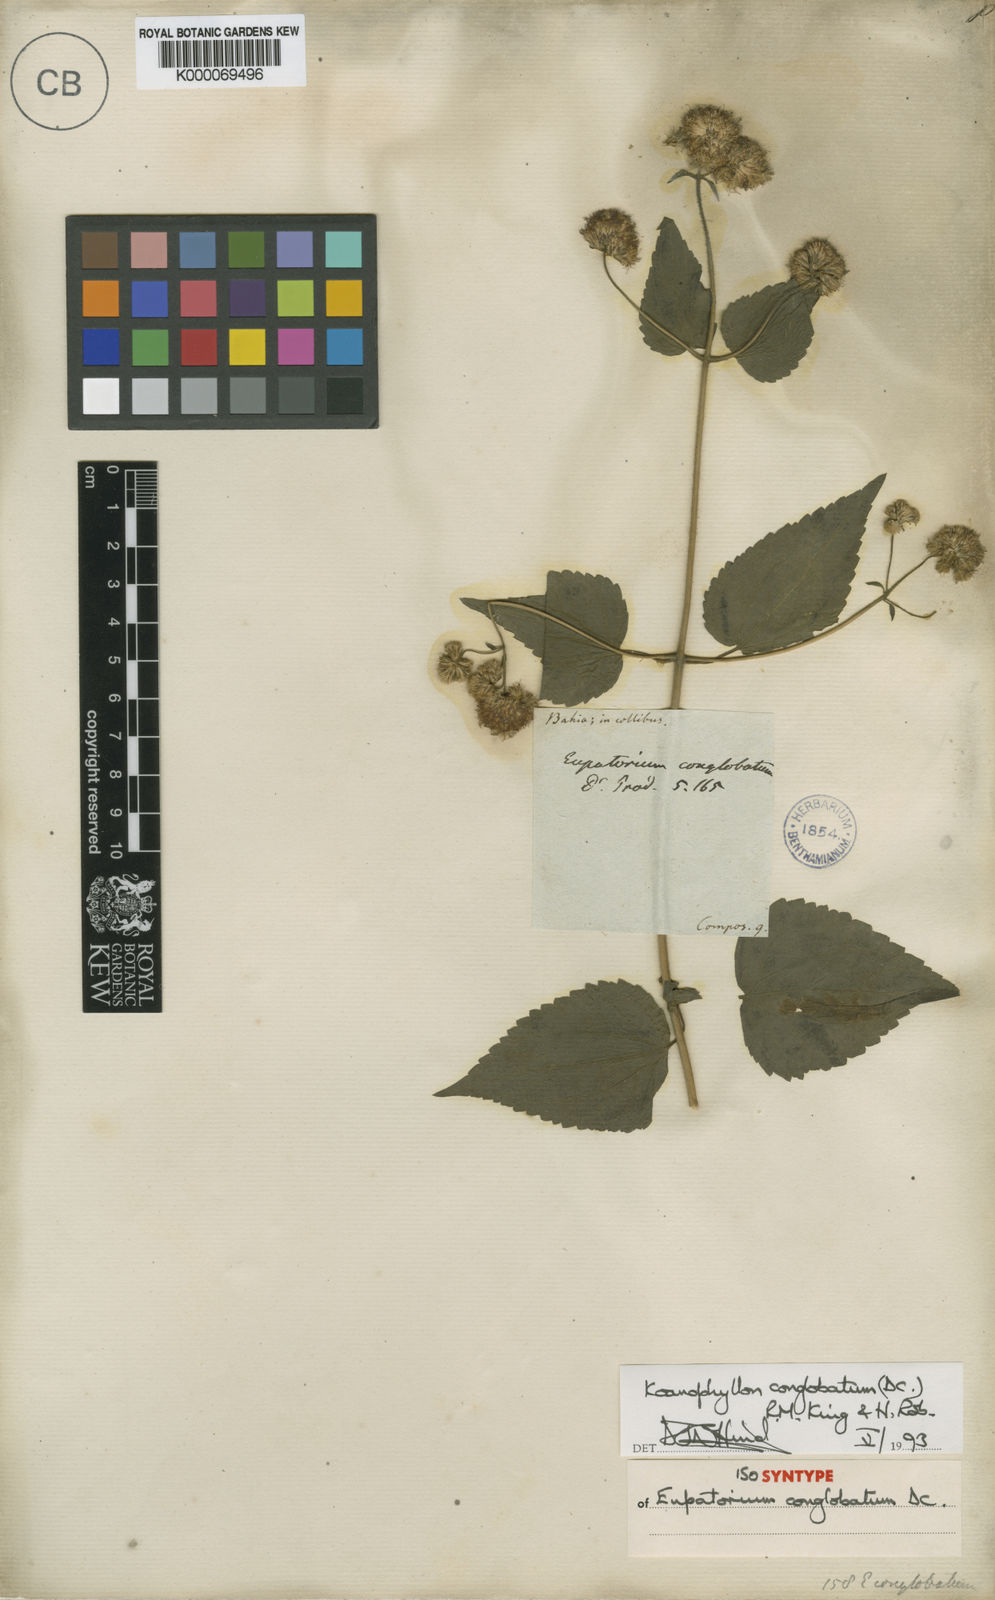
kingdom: Plantae
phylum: Tracheophyta
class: Magnoliopsida
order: Asterales
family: Asteraceae
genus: Koanophyllon
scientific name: Koanophyllon conglobatum
